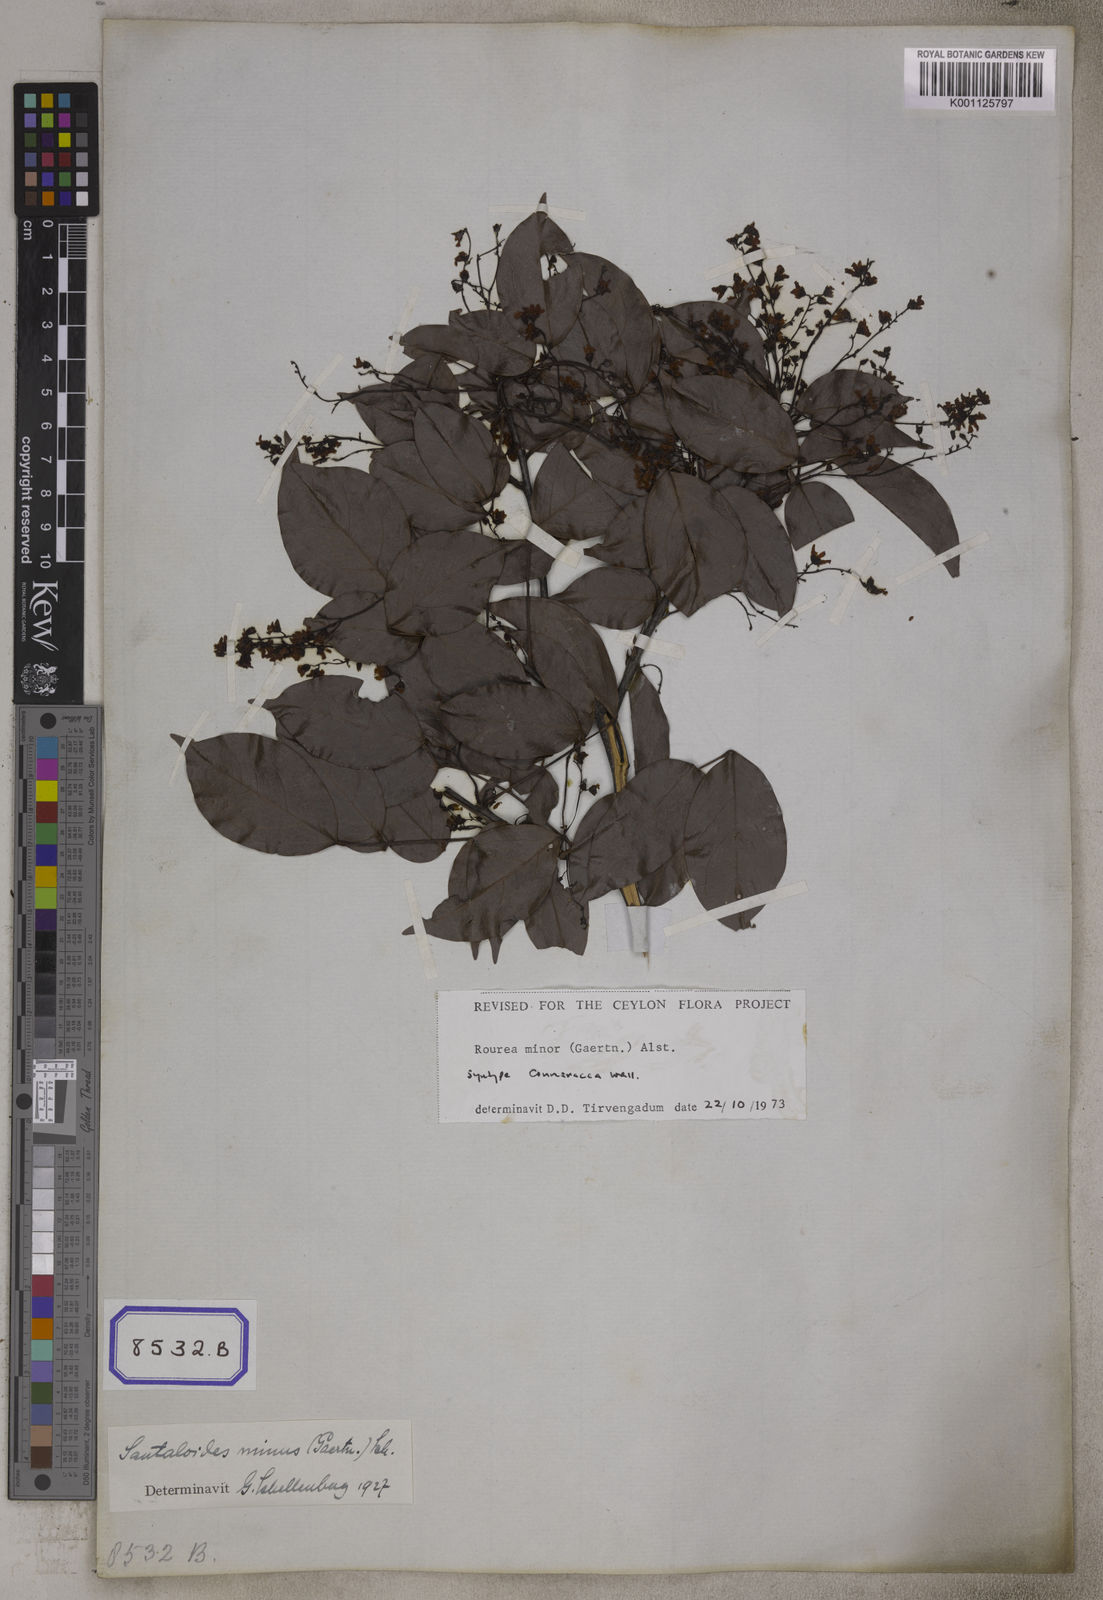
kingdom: Plantae
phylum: Tracheophyta
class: Magnoliopsida
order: Oxalidales
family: Connaraceae
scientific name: Connaraceae
